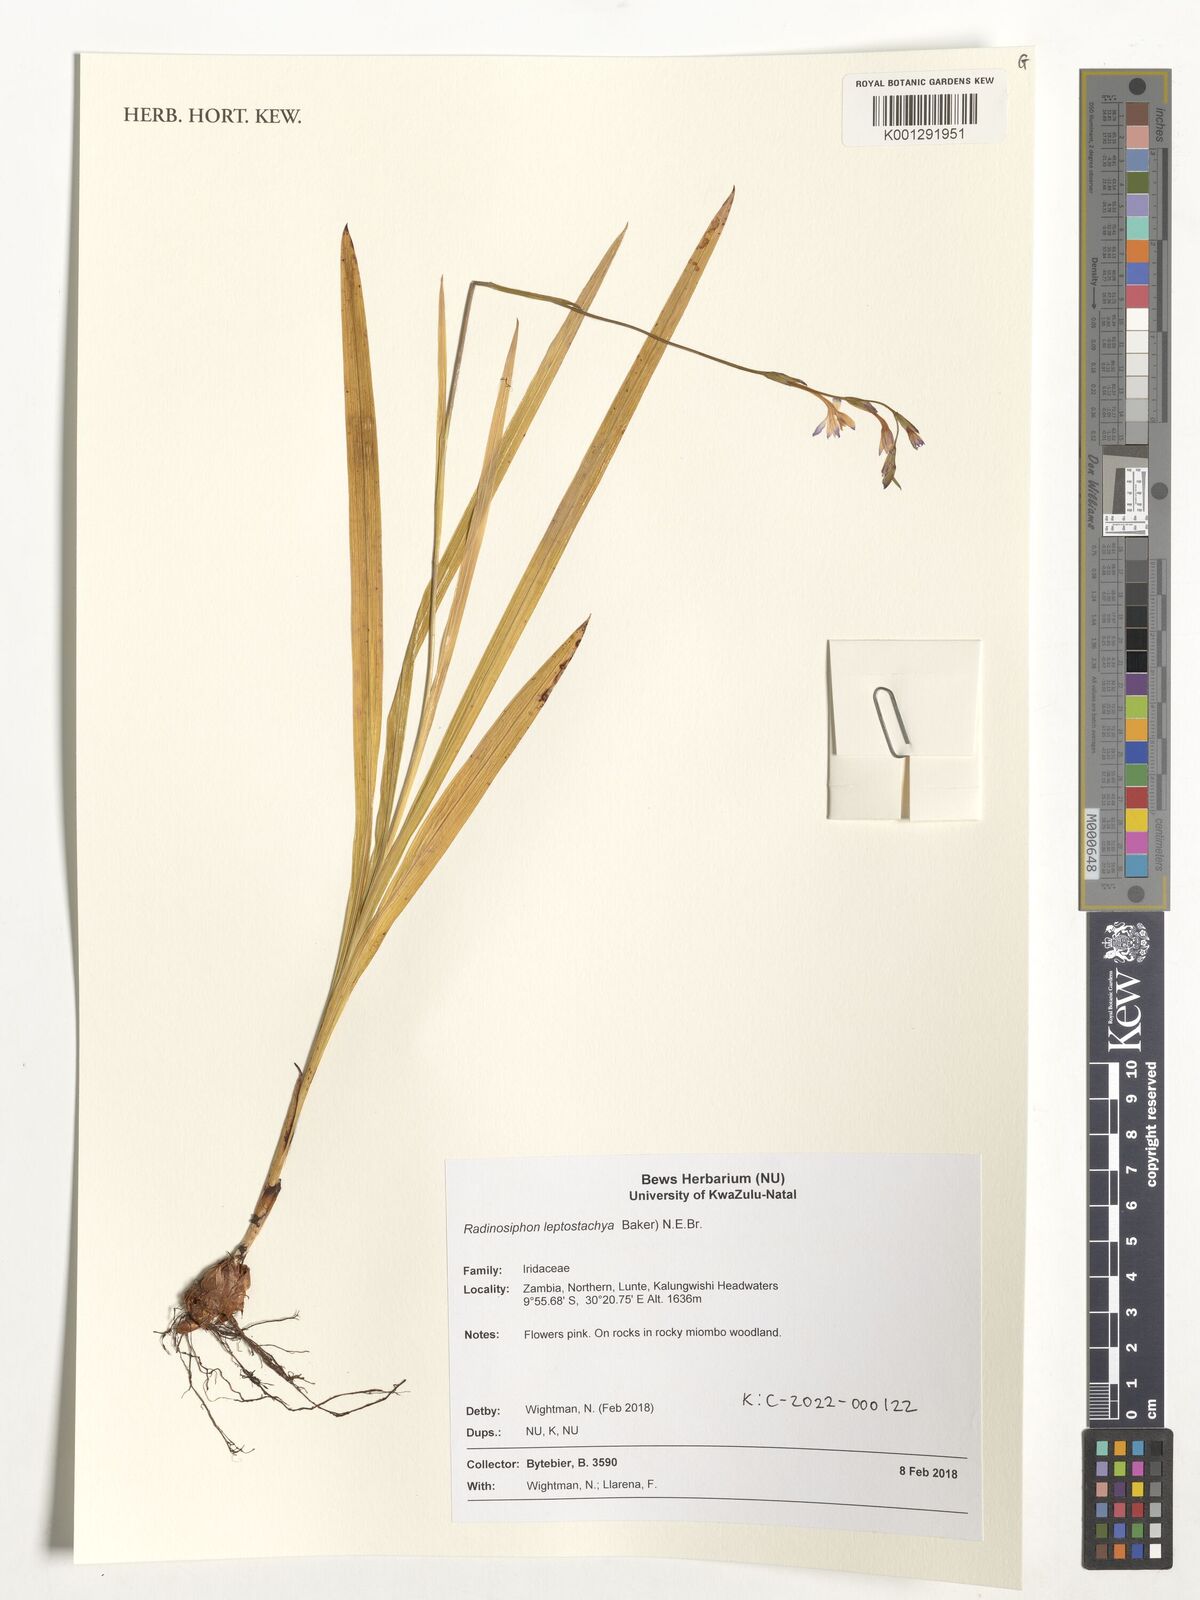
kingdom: Plantae
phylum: Tracheophyta
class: Liliopsida
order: Asparagales
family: Iridaceae
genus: Radinosiphon
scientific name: Radinosiphon leptostachya
